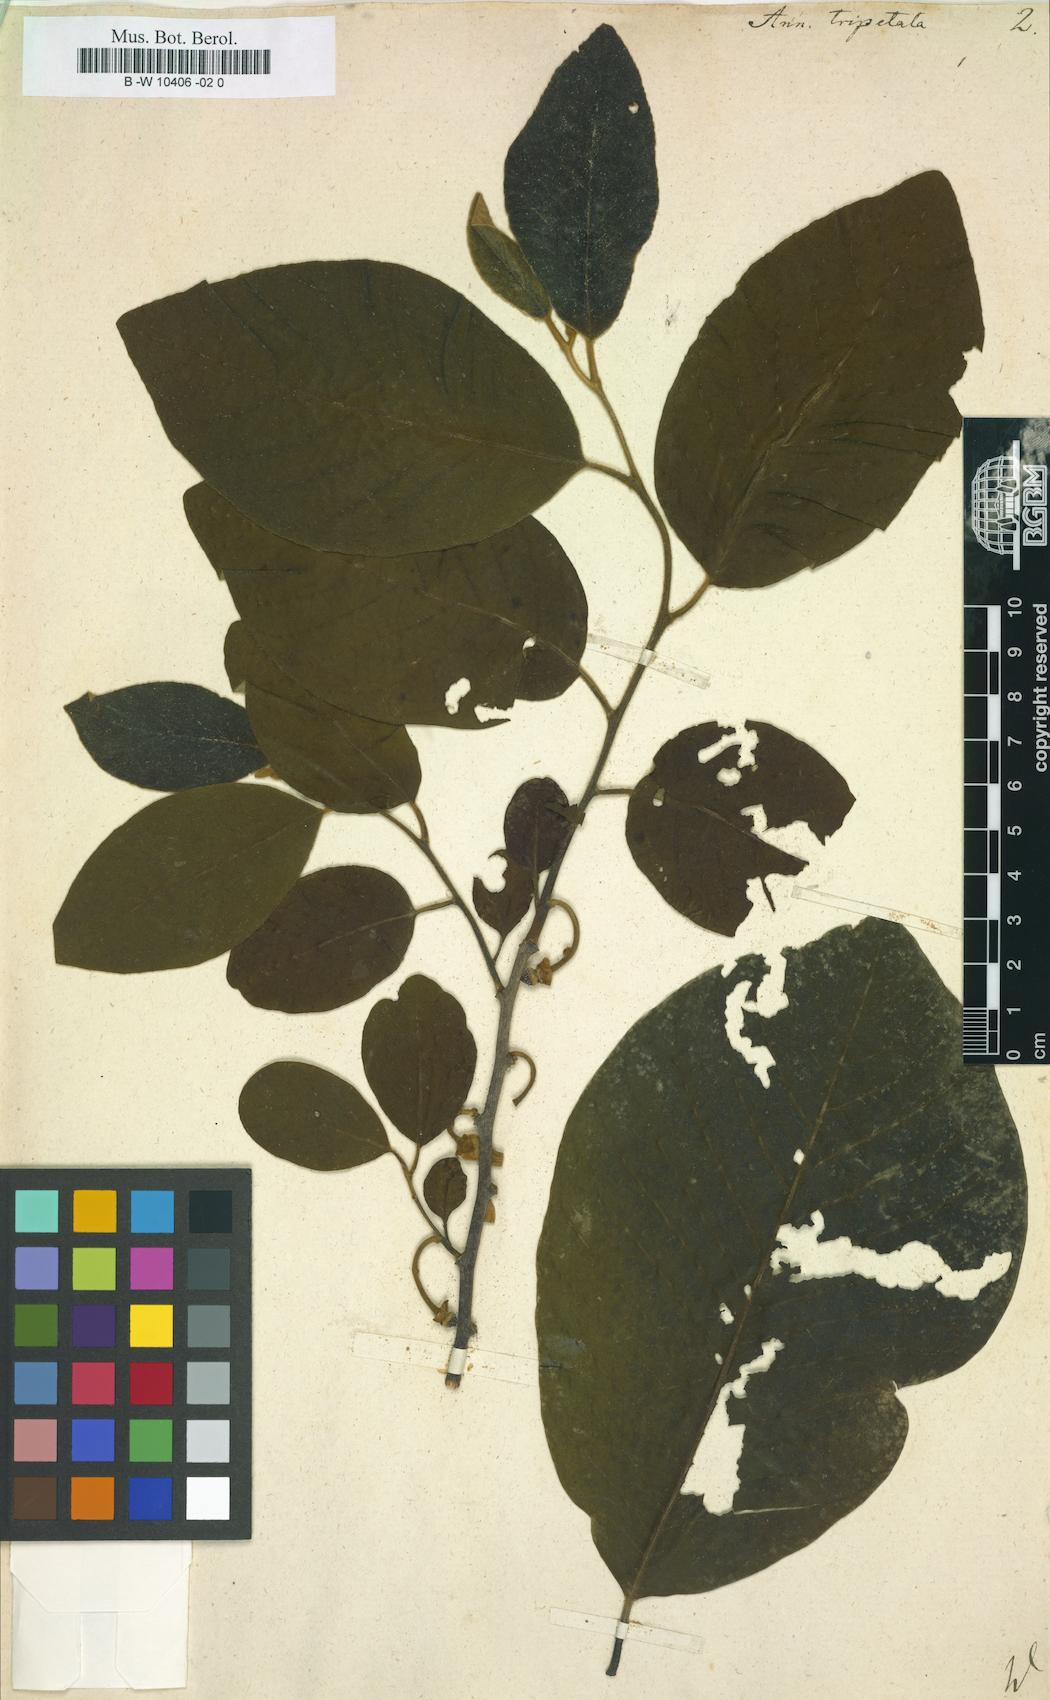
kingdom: Plantae
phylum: Tracheophyta
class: Magnoliopsida
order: Magnoliales
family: Annonaceae
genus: Annona
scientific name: Annona cherimola
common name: Cherimoya
